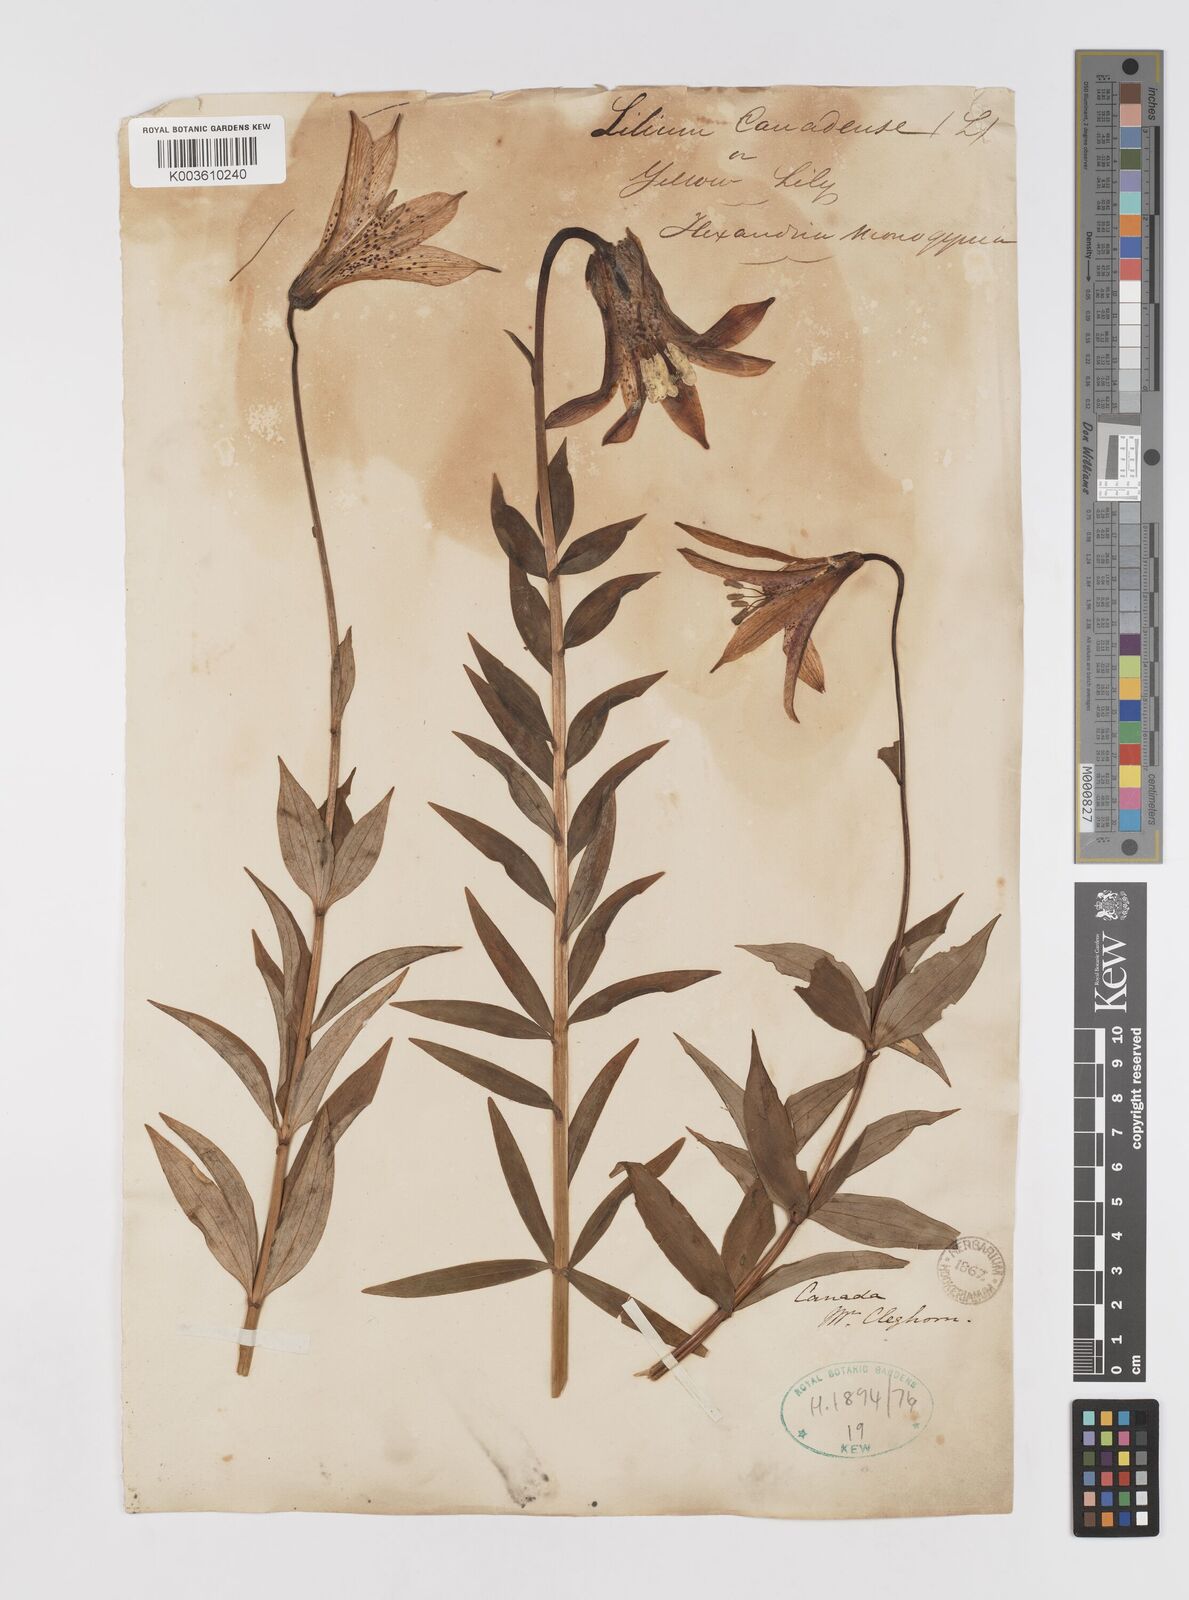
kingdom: Plantae
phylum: Tracheophyta
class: Liliopsida
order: Liliales
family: Liliaceae
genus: Lilium
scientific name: Lilium canadense
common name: Canada lily
